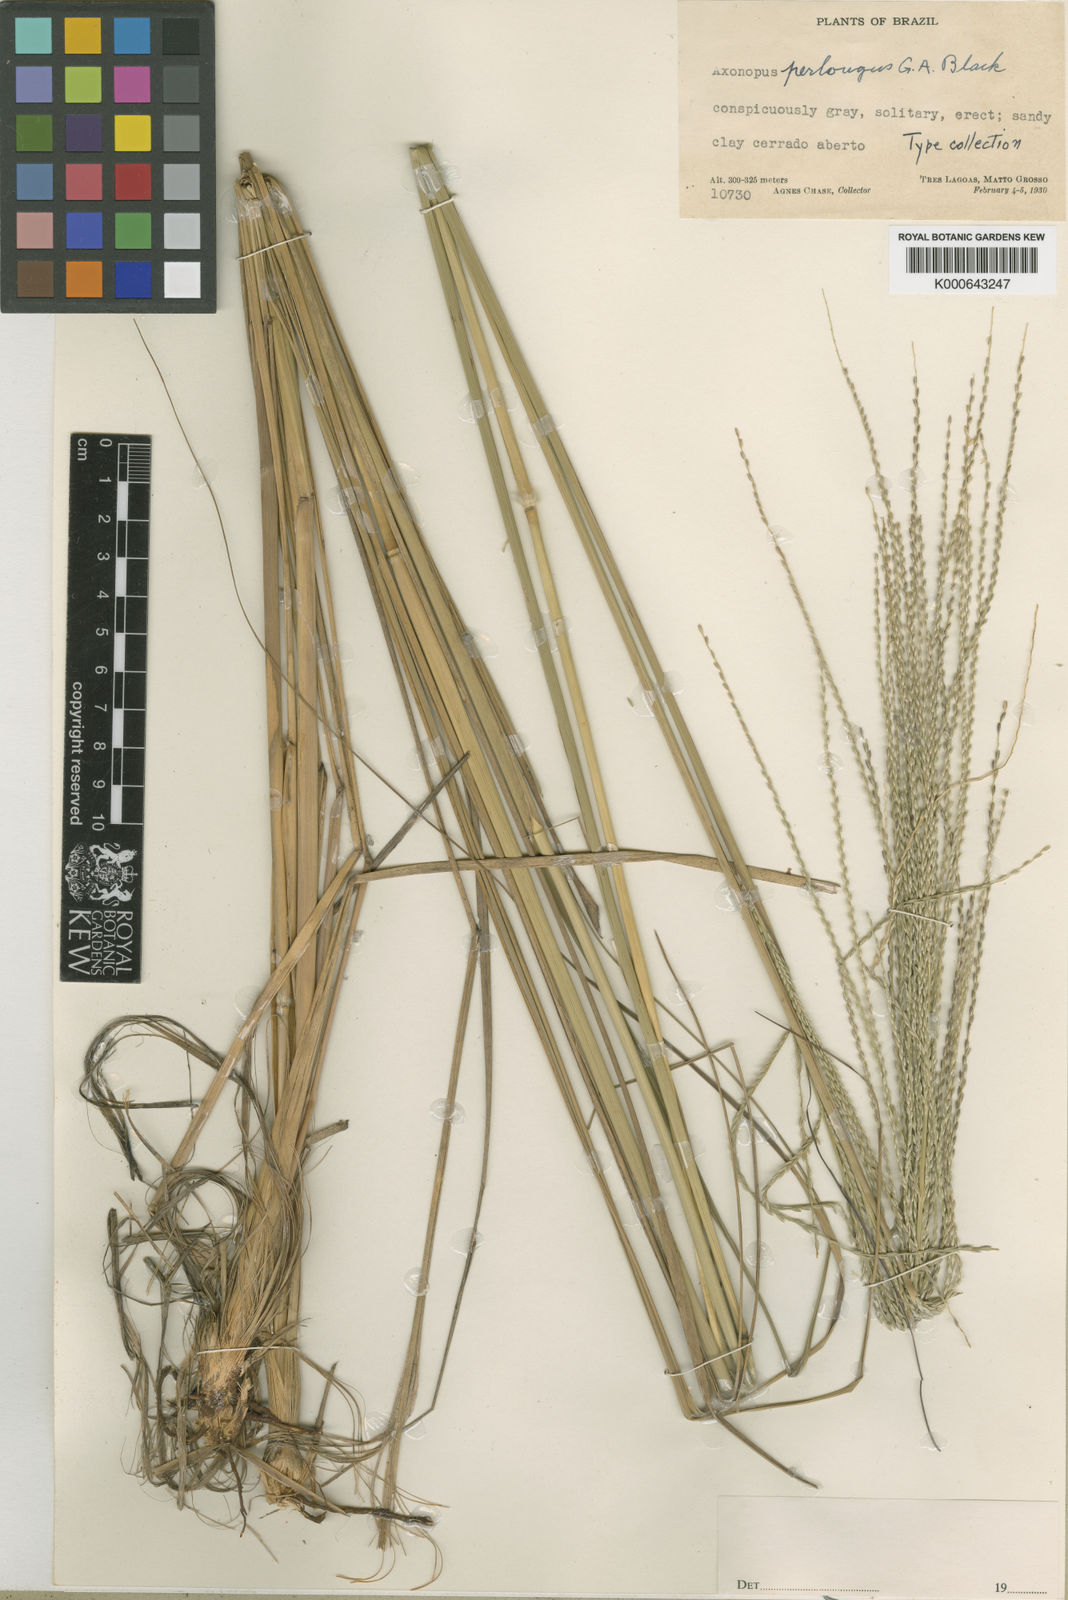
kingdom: Plantae
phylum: Tracheophyta
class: Liliopsida
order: Poales
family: Poaceae
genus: Axonopus
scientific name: Axonopus siccus
